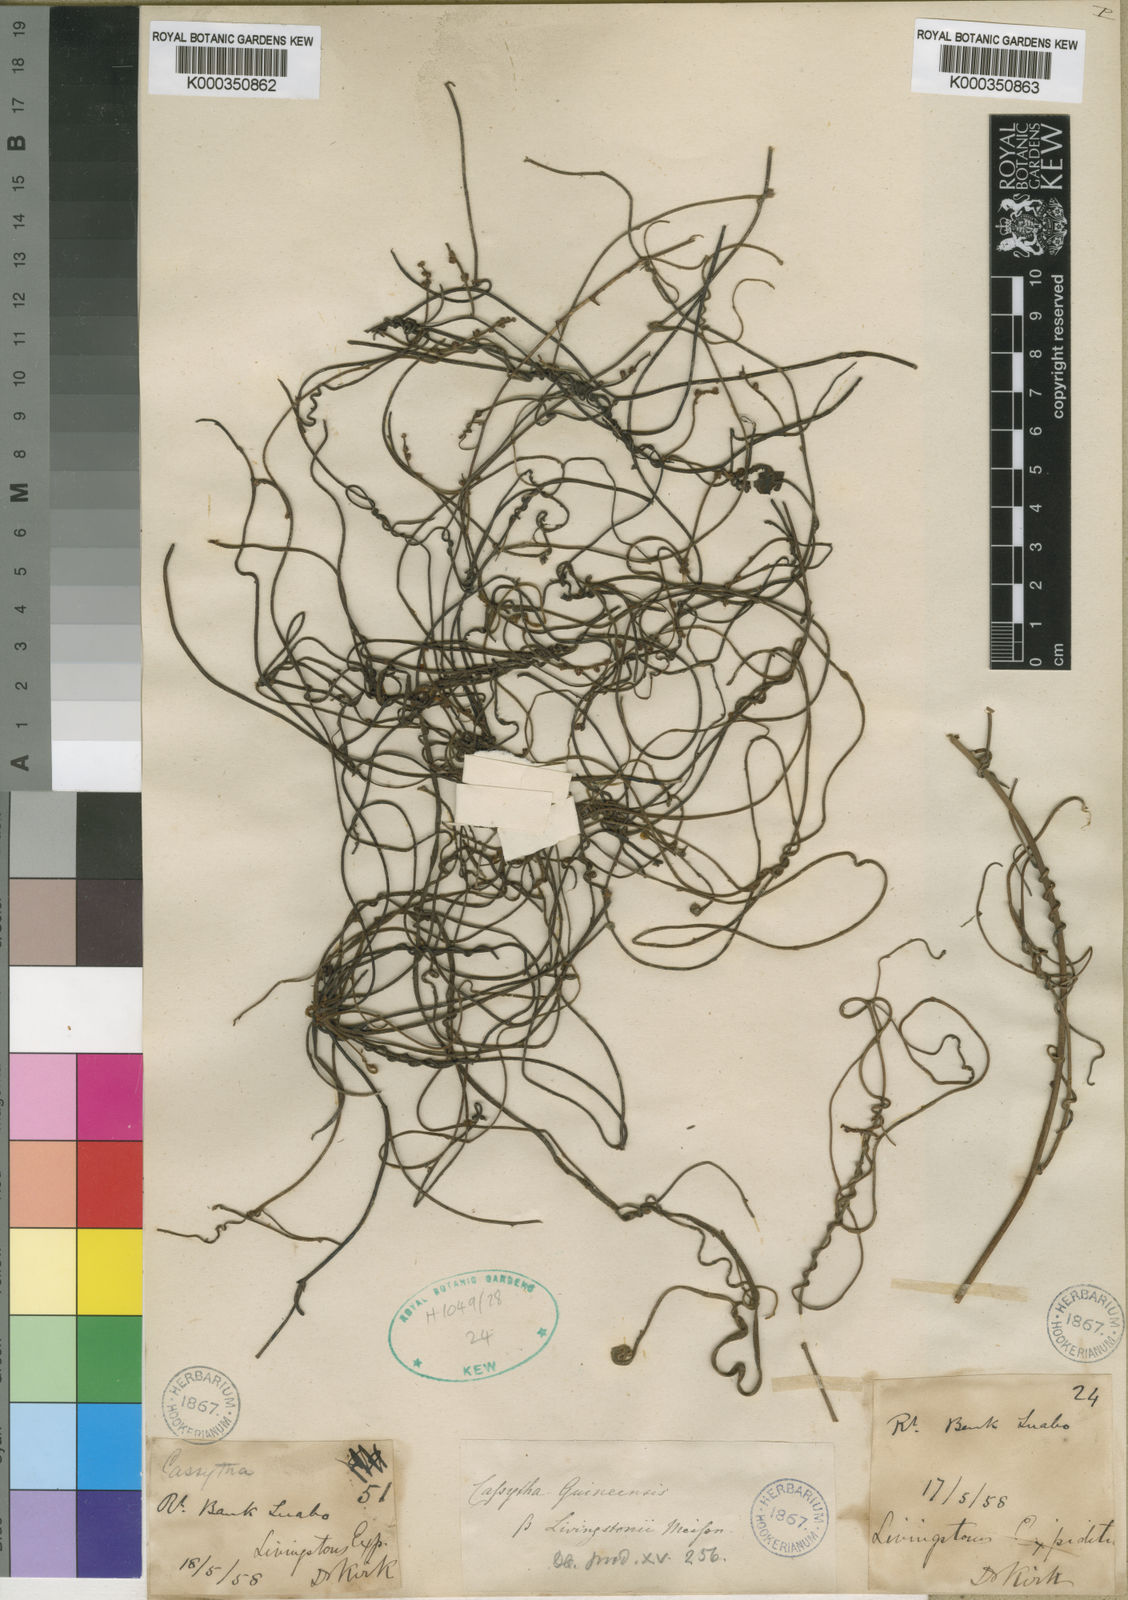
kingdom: Plantae
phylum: Tracheophyta
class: Magnoliopsida
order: Laurales
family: Lauraceae
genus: Cassytha
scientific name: Cassytha filiformis
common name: Dodder-laurel
